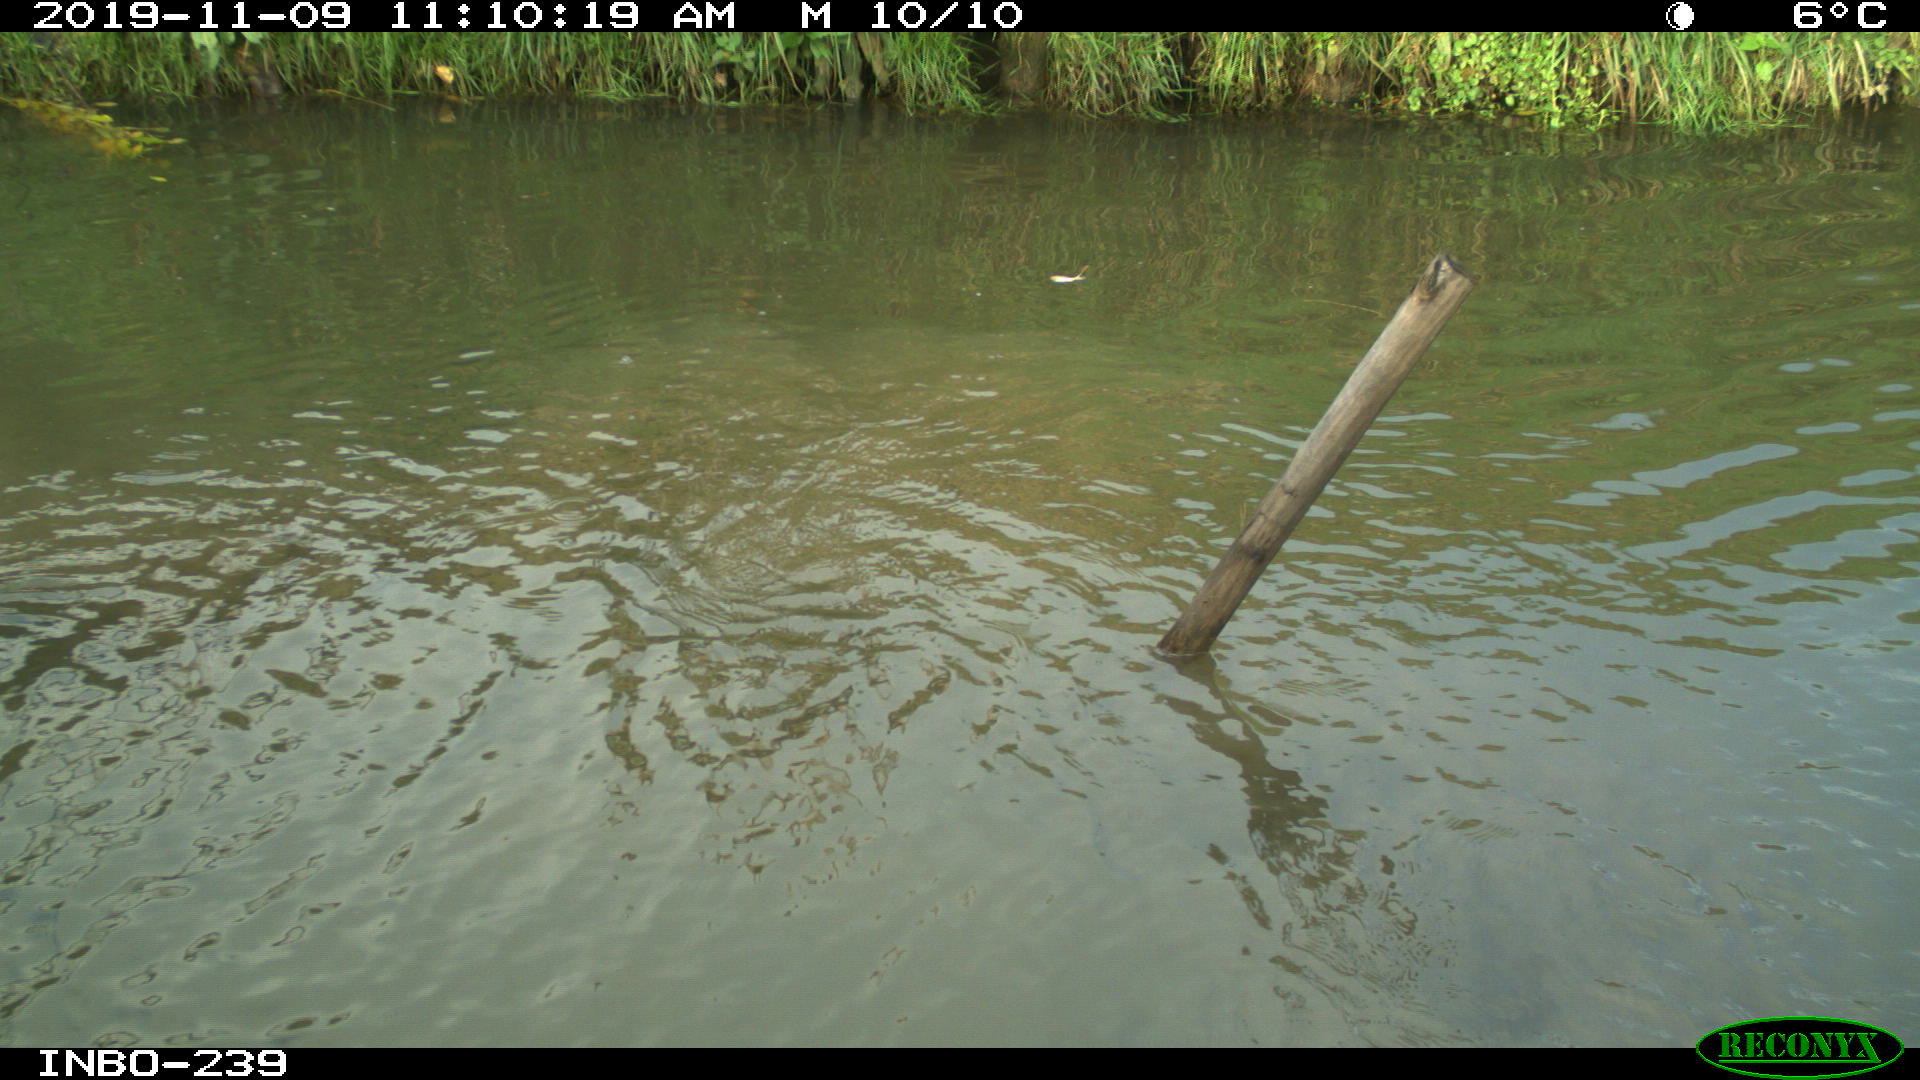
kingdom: Animalia
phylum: Chordata
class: Mammalia
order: Carnivora
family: Canidae
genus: Canis
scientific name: Canis lupus
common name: Gray wolf
